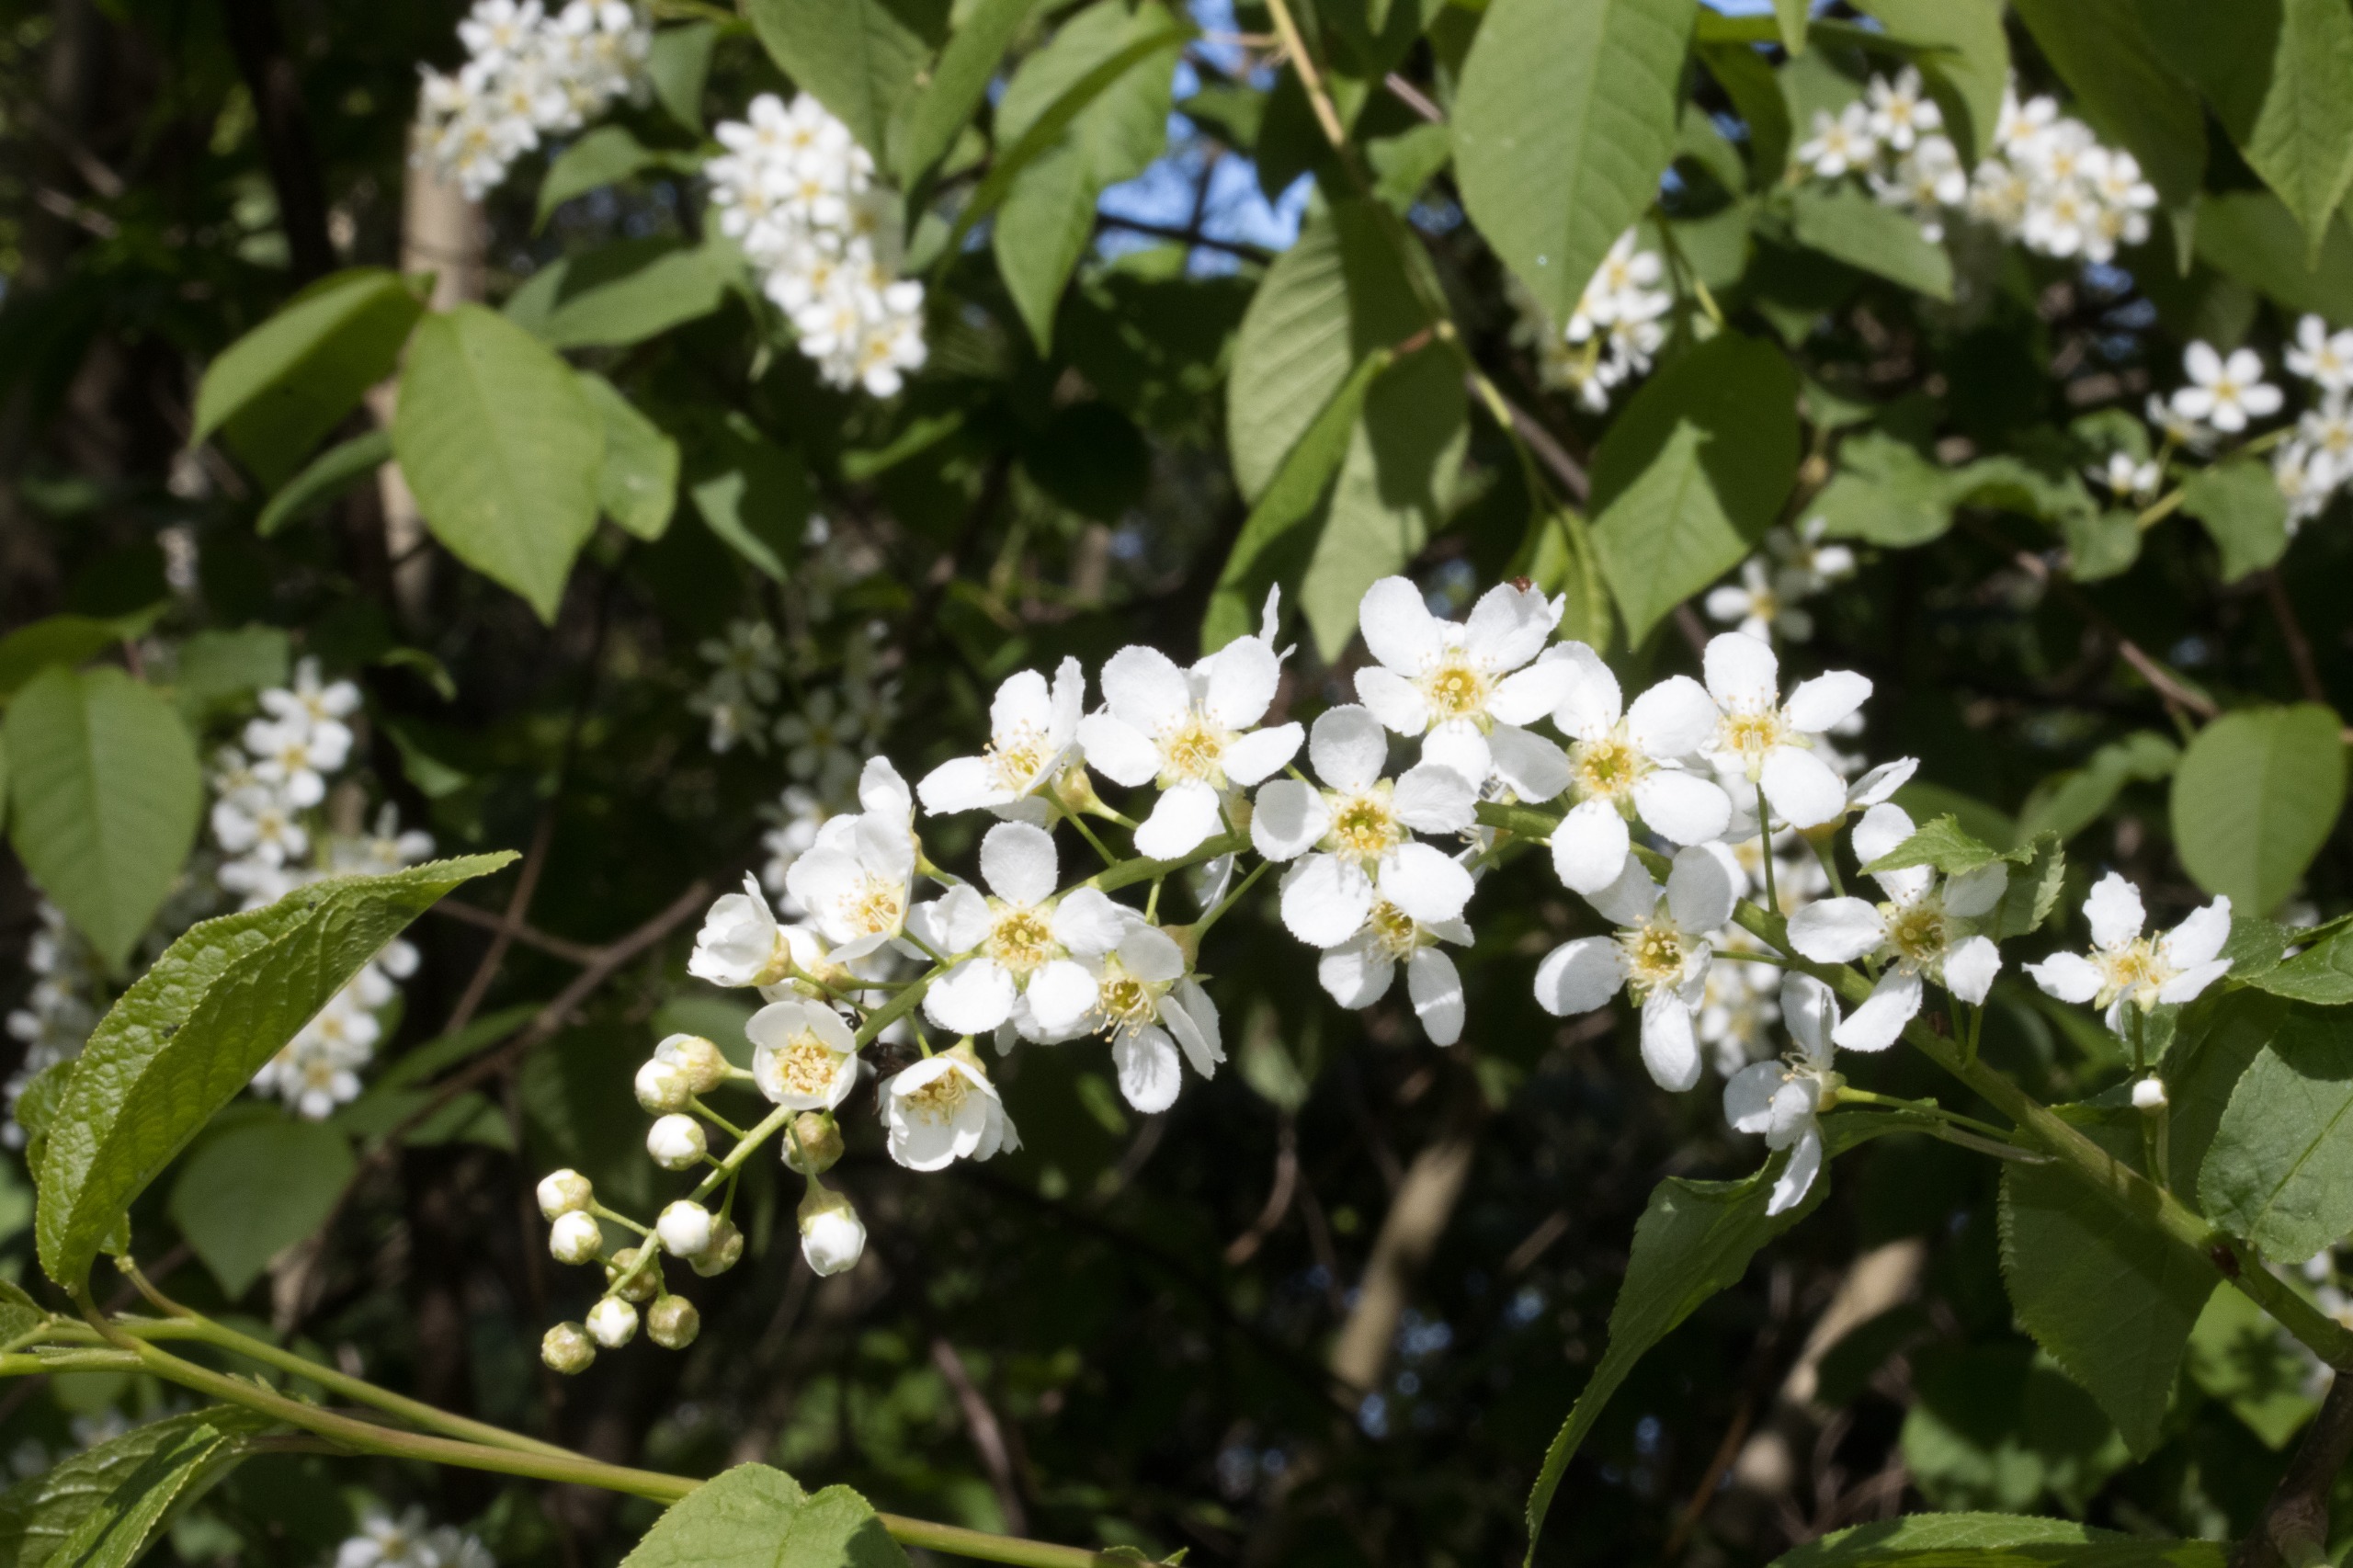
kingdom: Plantae
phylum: Tracheophyta
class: Magnoliopsida
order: Rosales
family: Rosaceae
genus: Prunus
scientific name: Prunus padus
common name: Almindelig hæg
